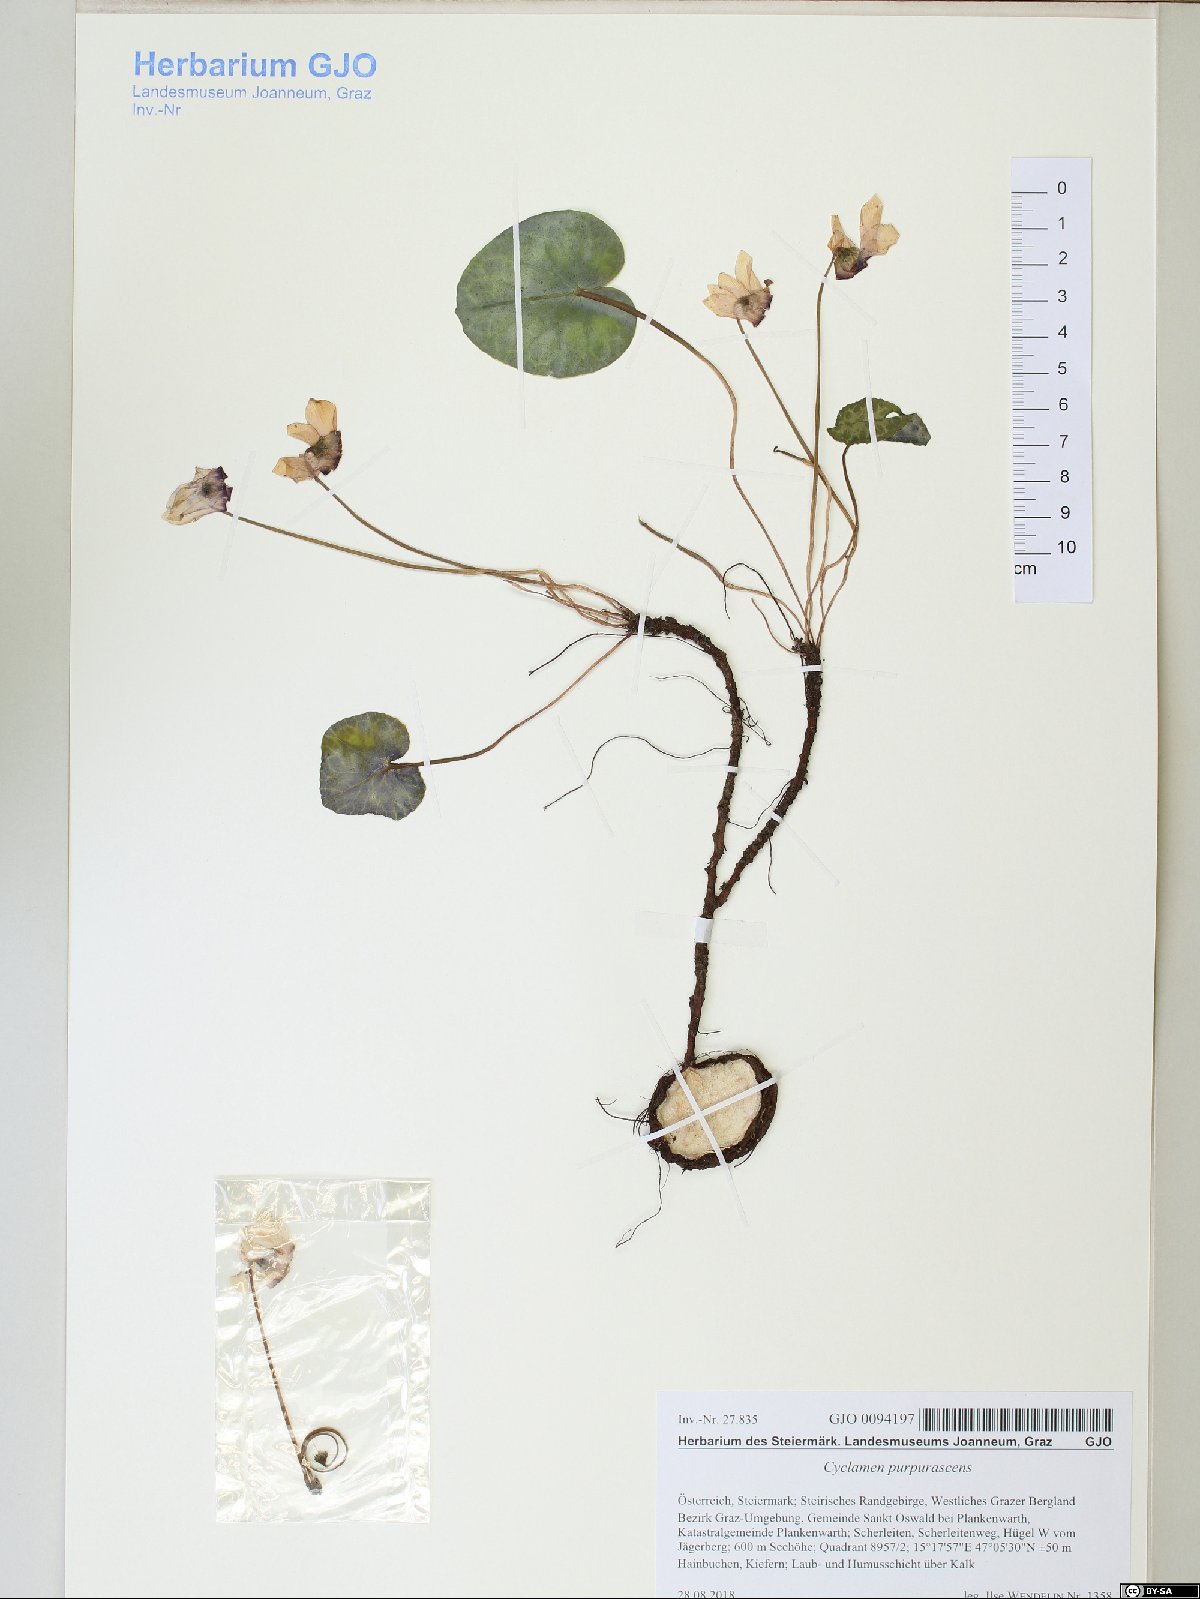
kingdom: Plantae
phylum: Tracheophyta
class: Magnoliopsida
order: Ericales
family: Primulaceae
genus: Cyclamen
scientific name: Cyclamen purpurascens
